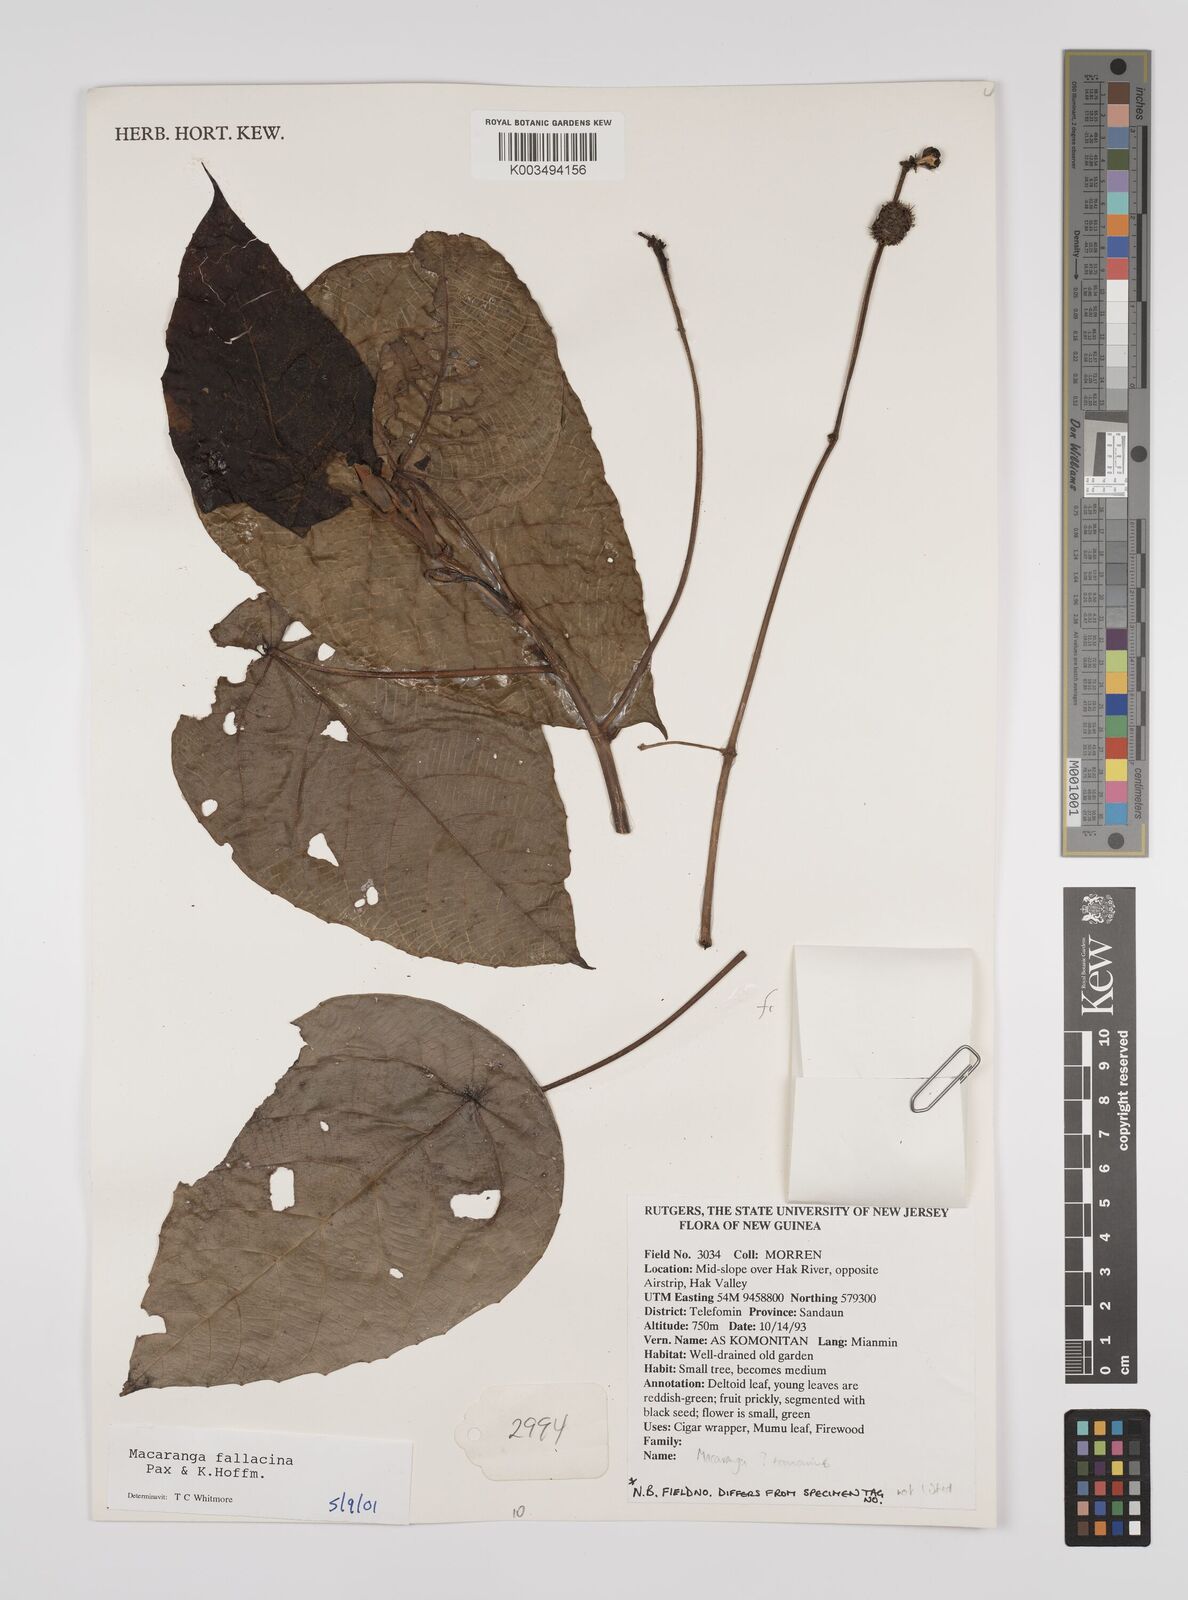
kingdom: Plantae
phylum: Tracheophyta
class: Magnoliopsida
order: Malpighiales
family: Euphorbiaceae
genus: Macaranga
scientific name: Macaranga fallacina
